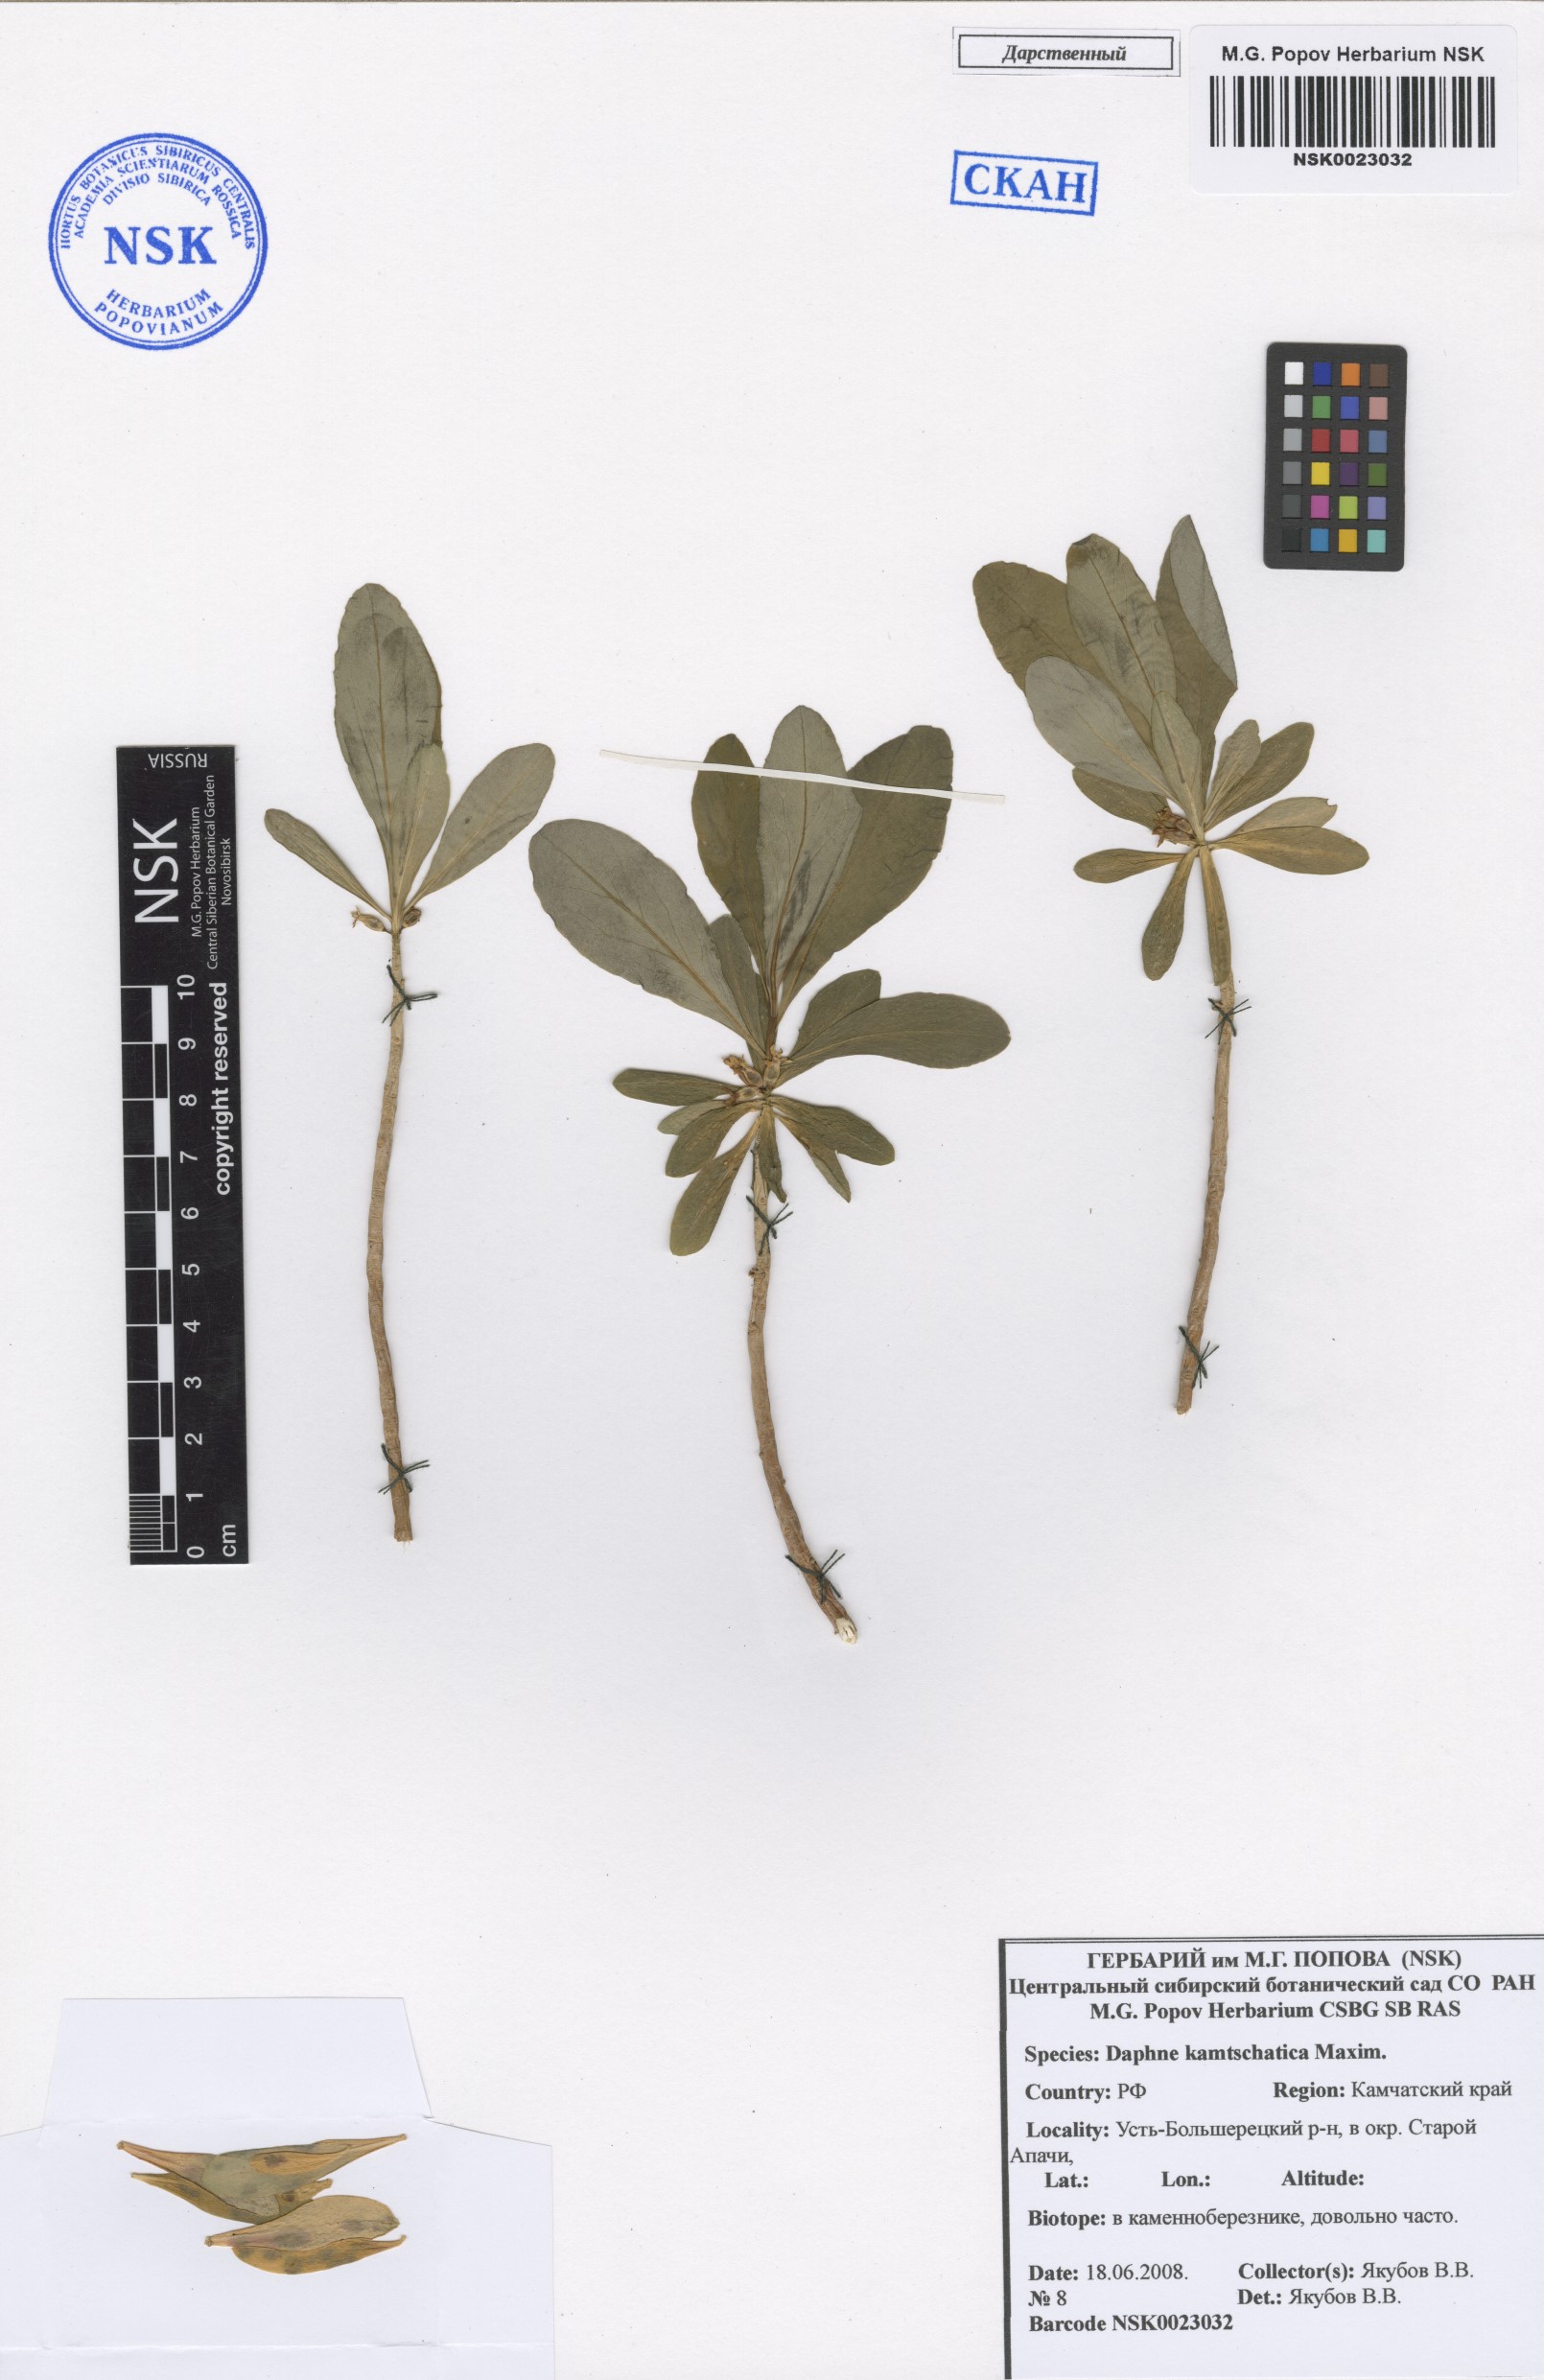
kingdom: Plantae
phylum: Tracheophyta
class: Magnoliopsida
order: Malvales
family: Thymelaeaceae
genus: Daphne
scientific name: Daphne kamtschatica
